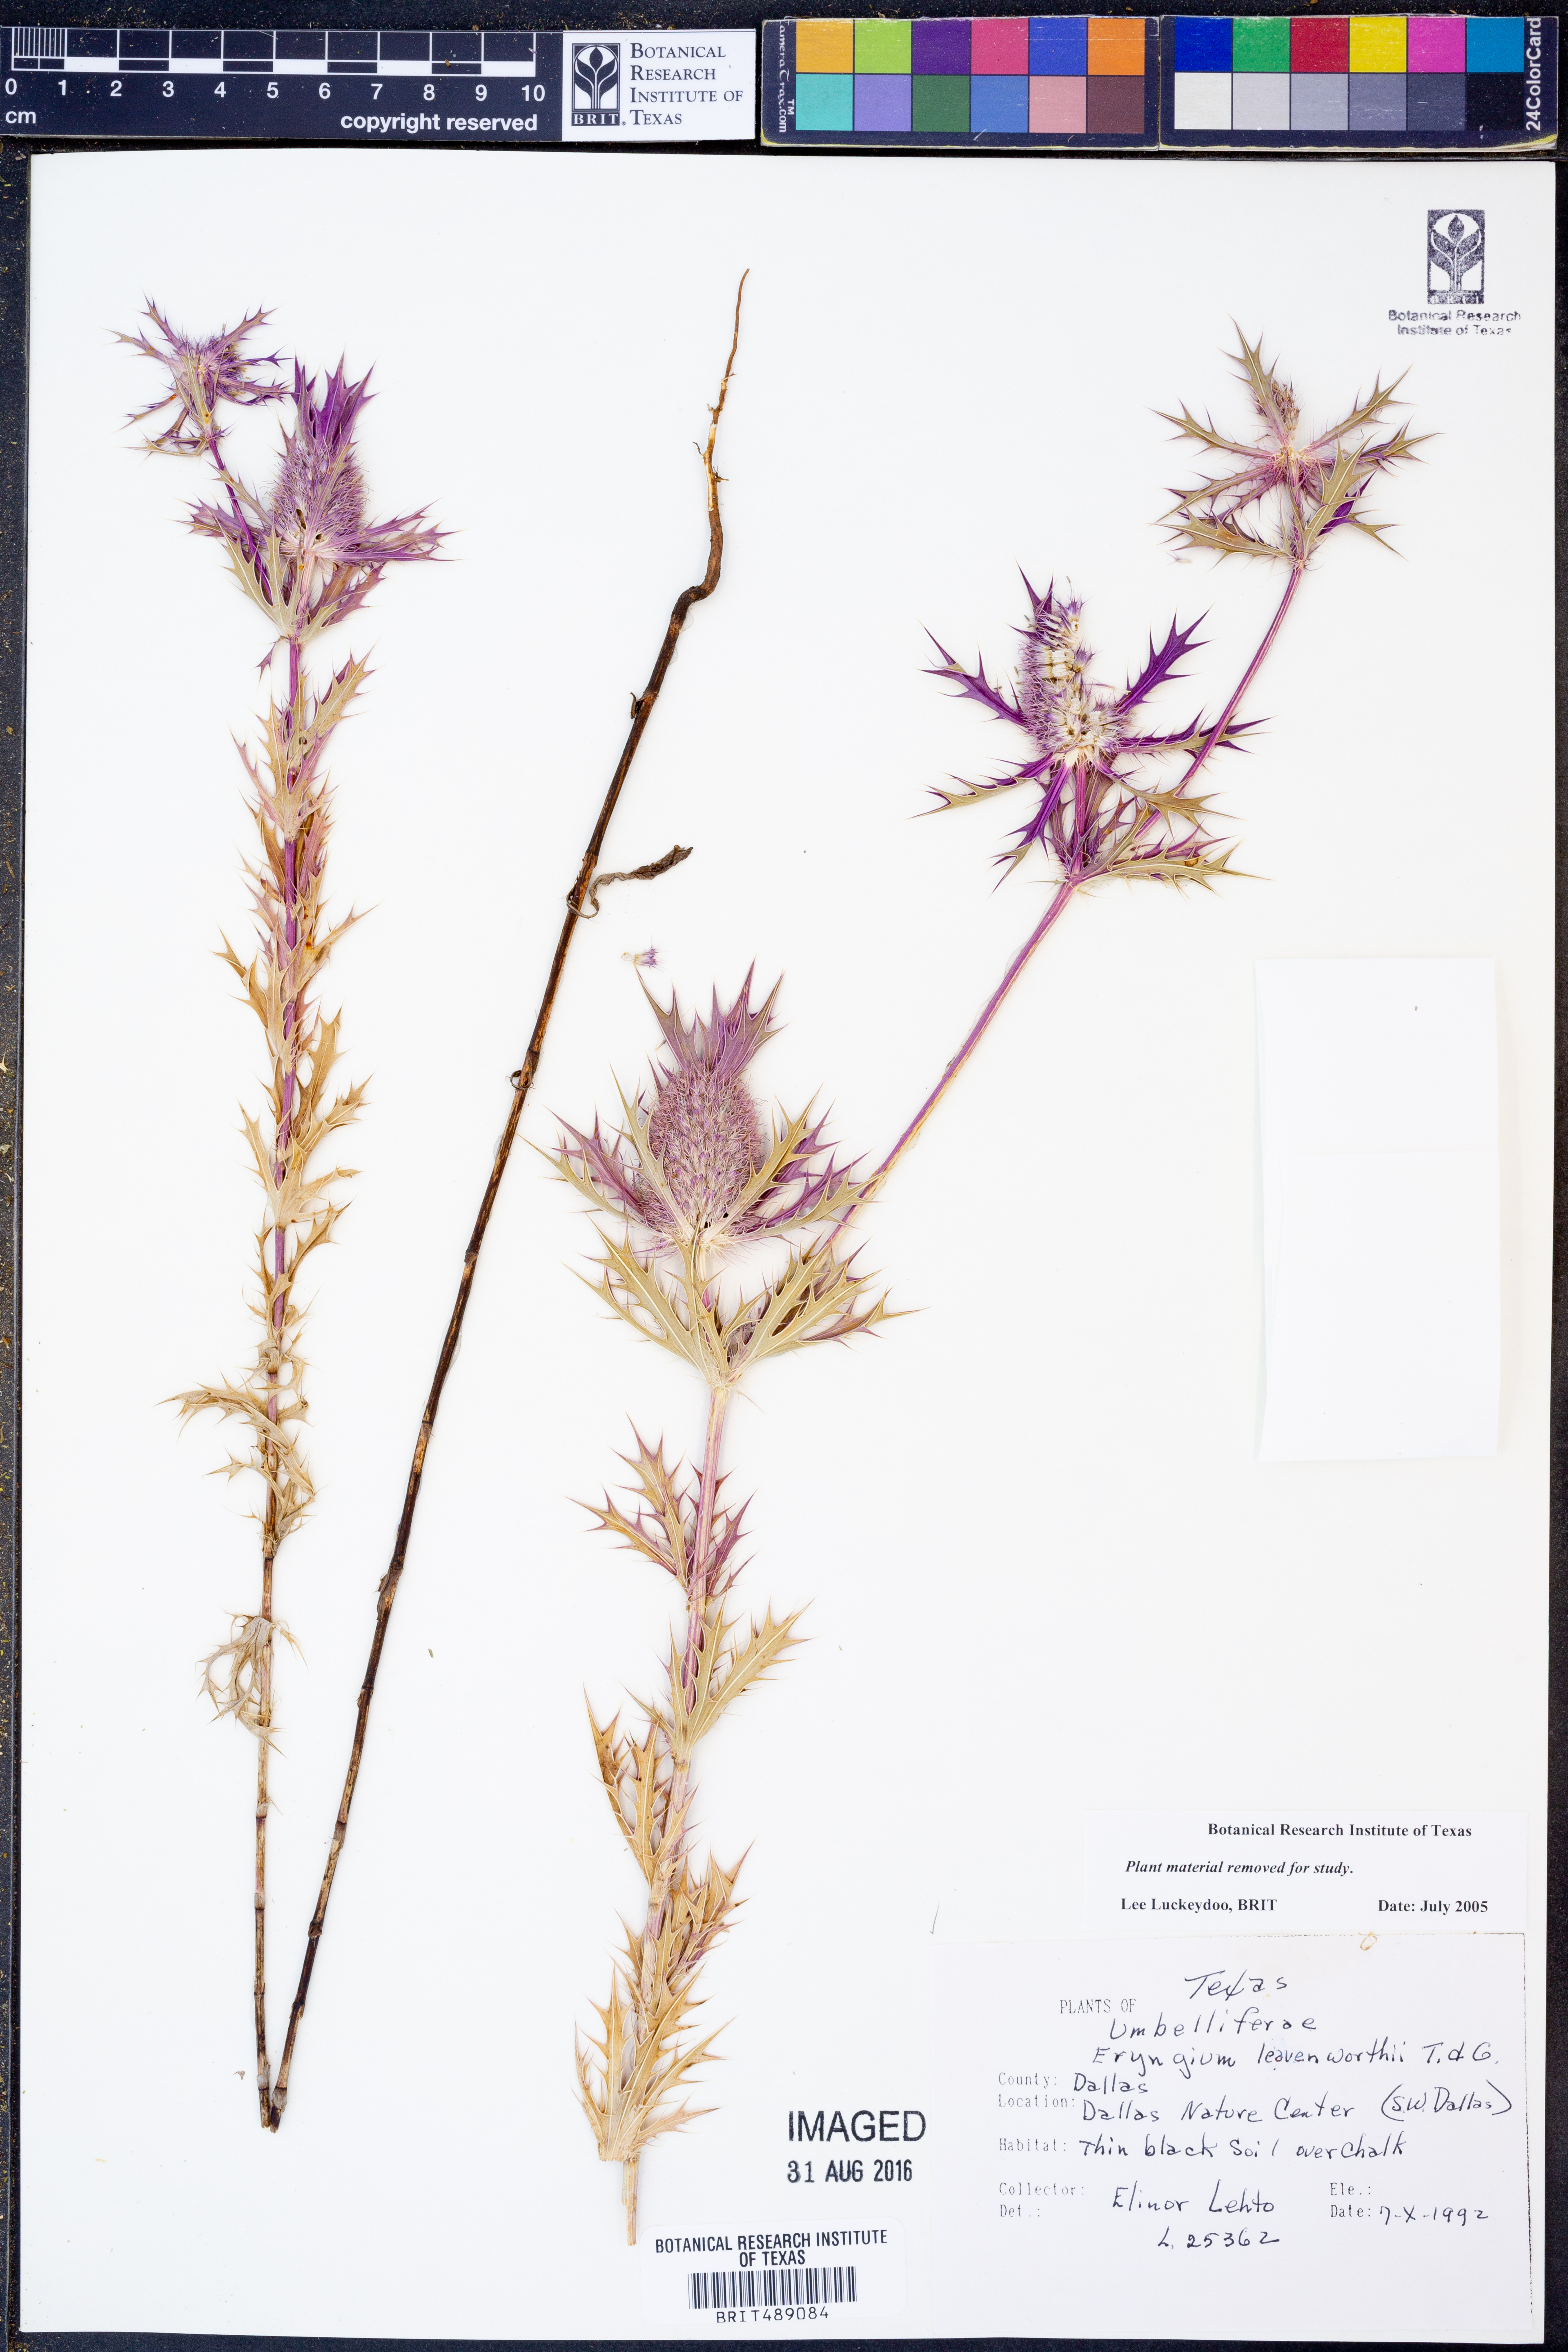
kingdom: Plantae
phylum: Tracheophyta
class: Magnoliopsida
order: Apiales
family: Apiaceae
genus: Eryngium
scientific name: Eryngium leavenworthii
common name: Leavenworth's eryngo
